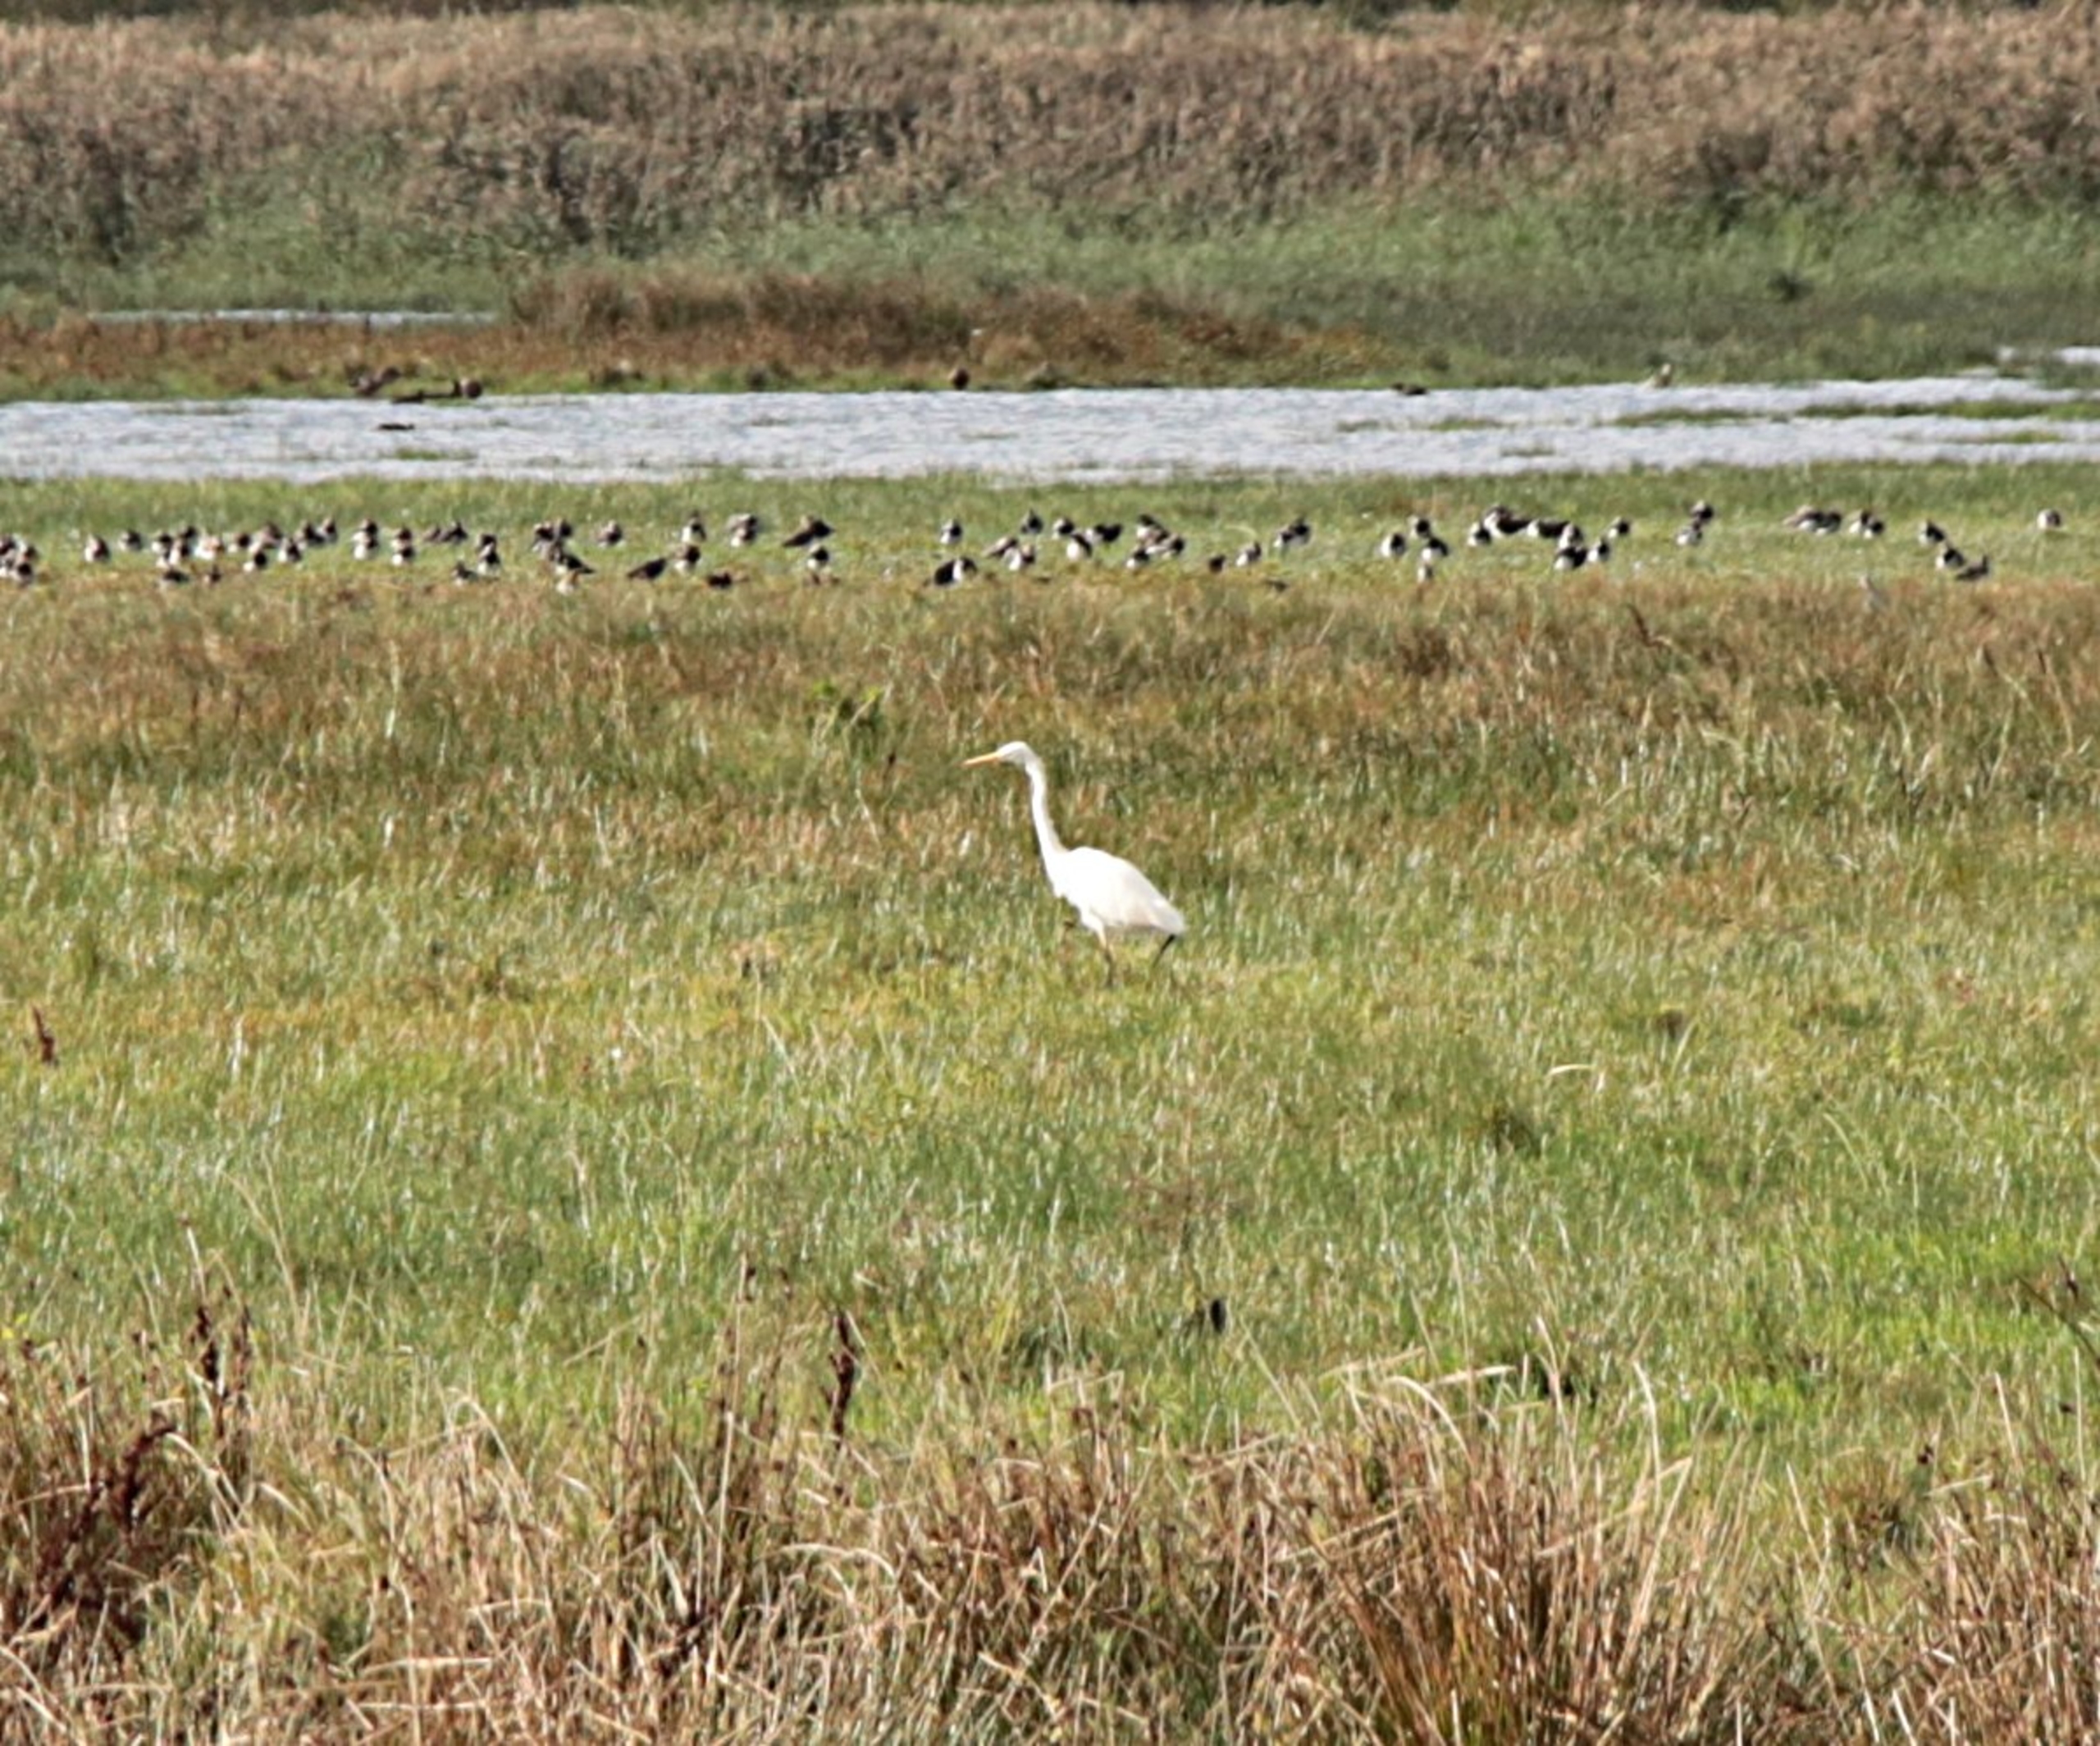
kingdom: Animalia
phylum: Chordata
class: Aves
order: Pelecaniformes
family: Ardeidae
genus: Ardea
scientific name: Ardea alba
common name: Sølvhejre
